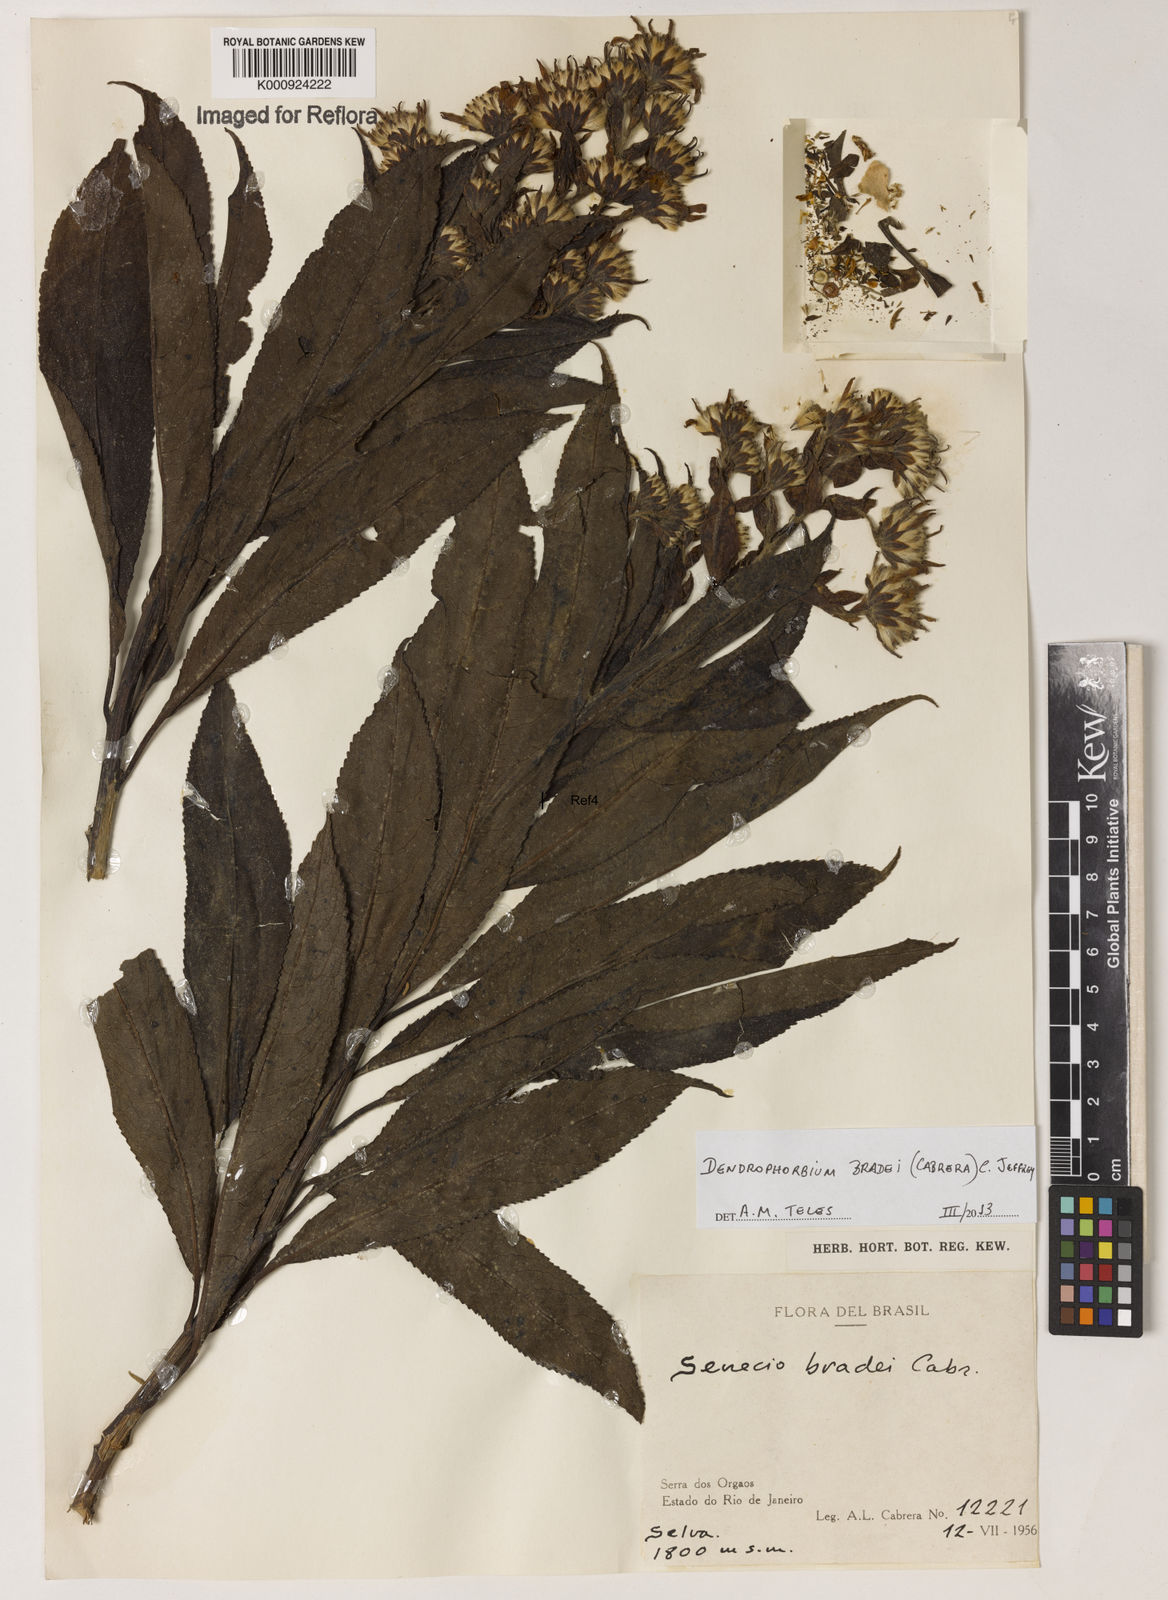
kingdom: Plantae
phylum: Tracheophyta
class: Magnoliopsida
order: Asterales
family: Asteraceae
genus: Dendrophorbium
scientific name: Dendrophorbium bradei
